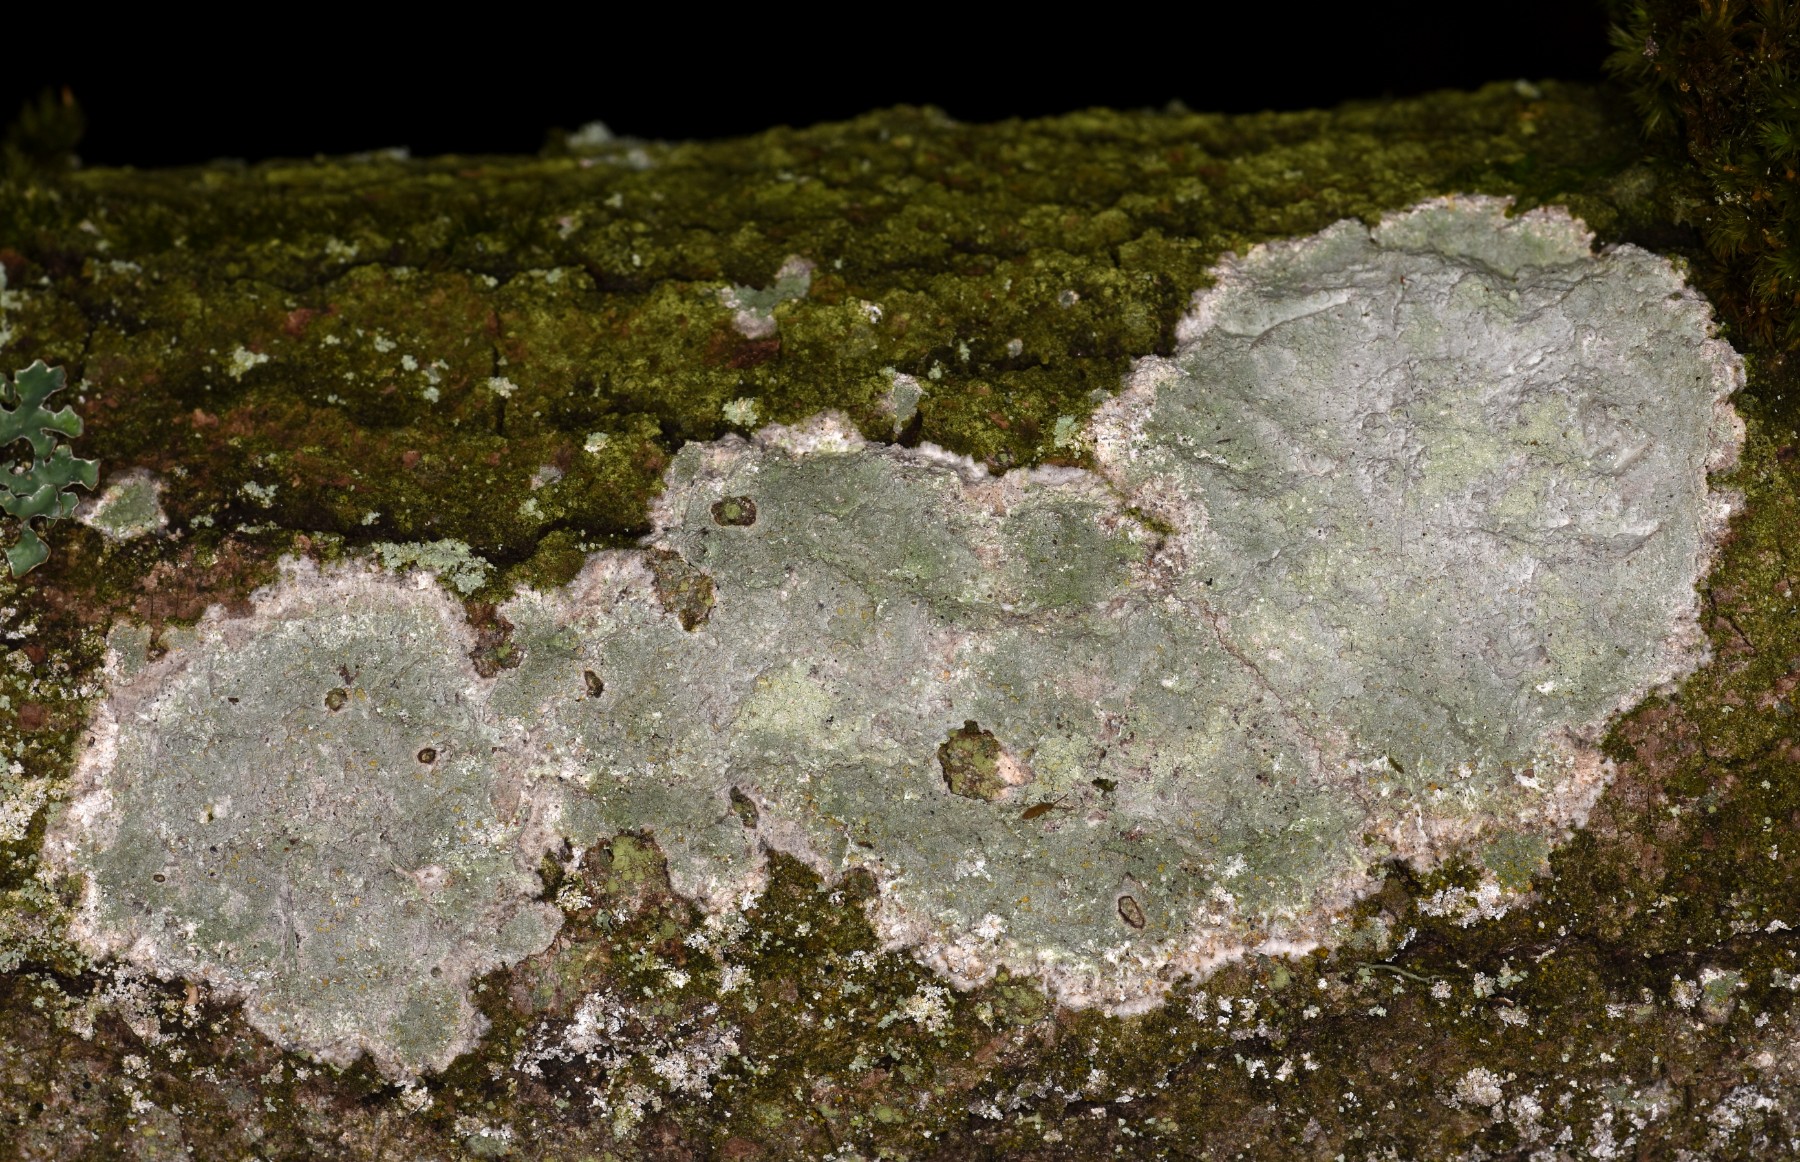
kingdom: Fungi
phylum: Ascomycota
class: Lecanoromycetes
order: Ostropales
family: Phlyctidaceae
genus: Phlyctis
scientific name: Phlyctis argena
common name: almindelig sølvlav
